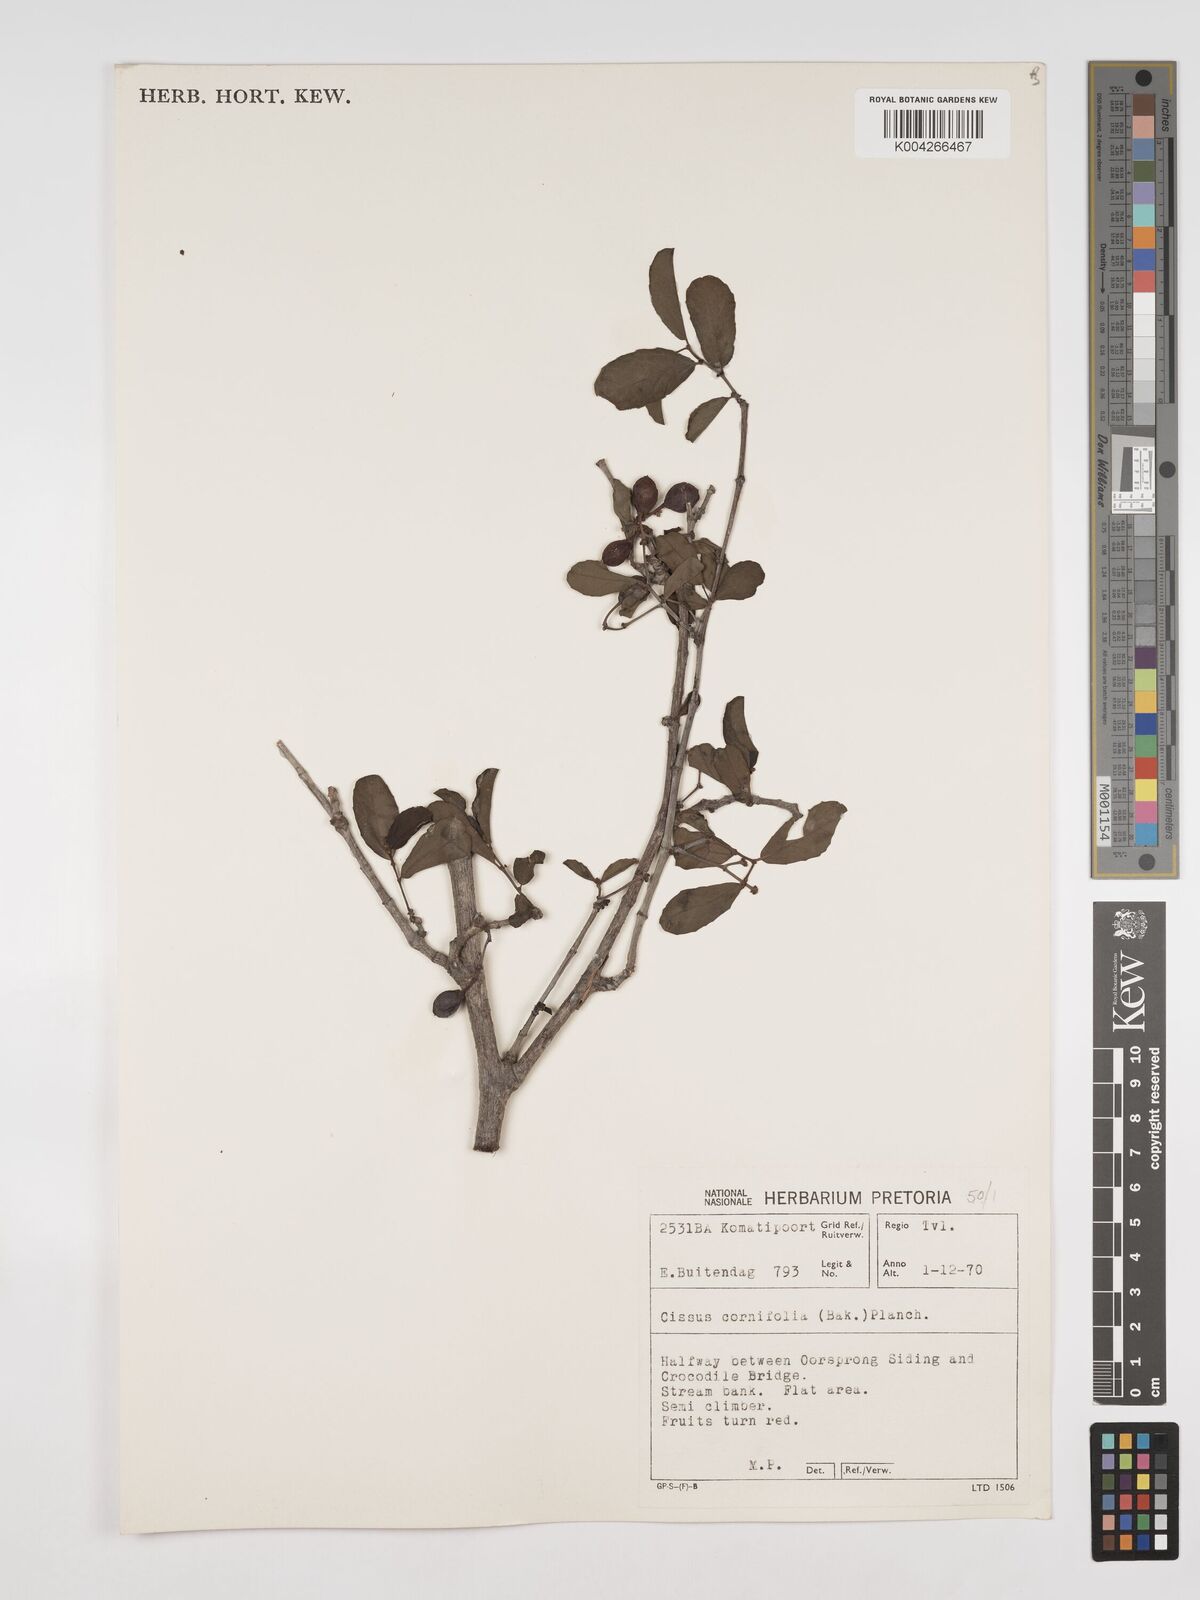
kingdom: Plantae
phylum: Tracheophyta
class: Magnoliopsida
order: Vitales
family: Vitaceae
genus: Cissus
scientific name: Cissus cornifolia
